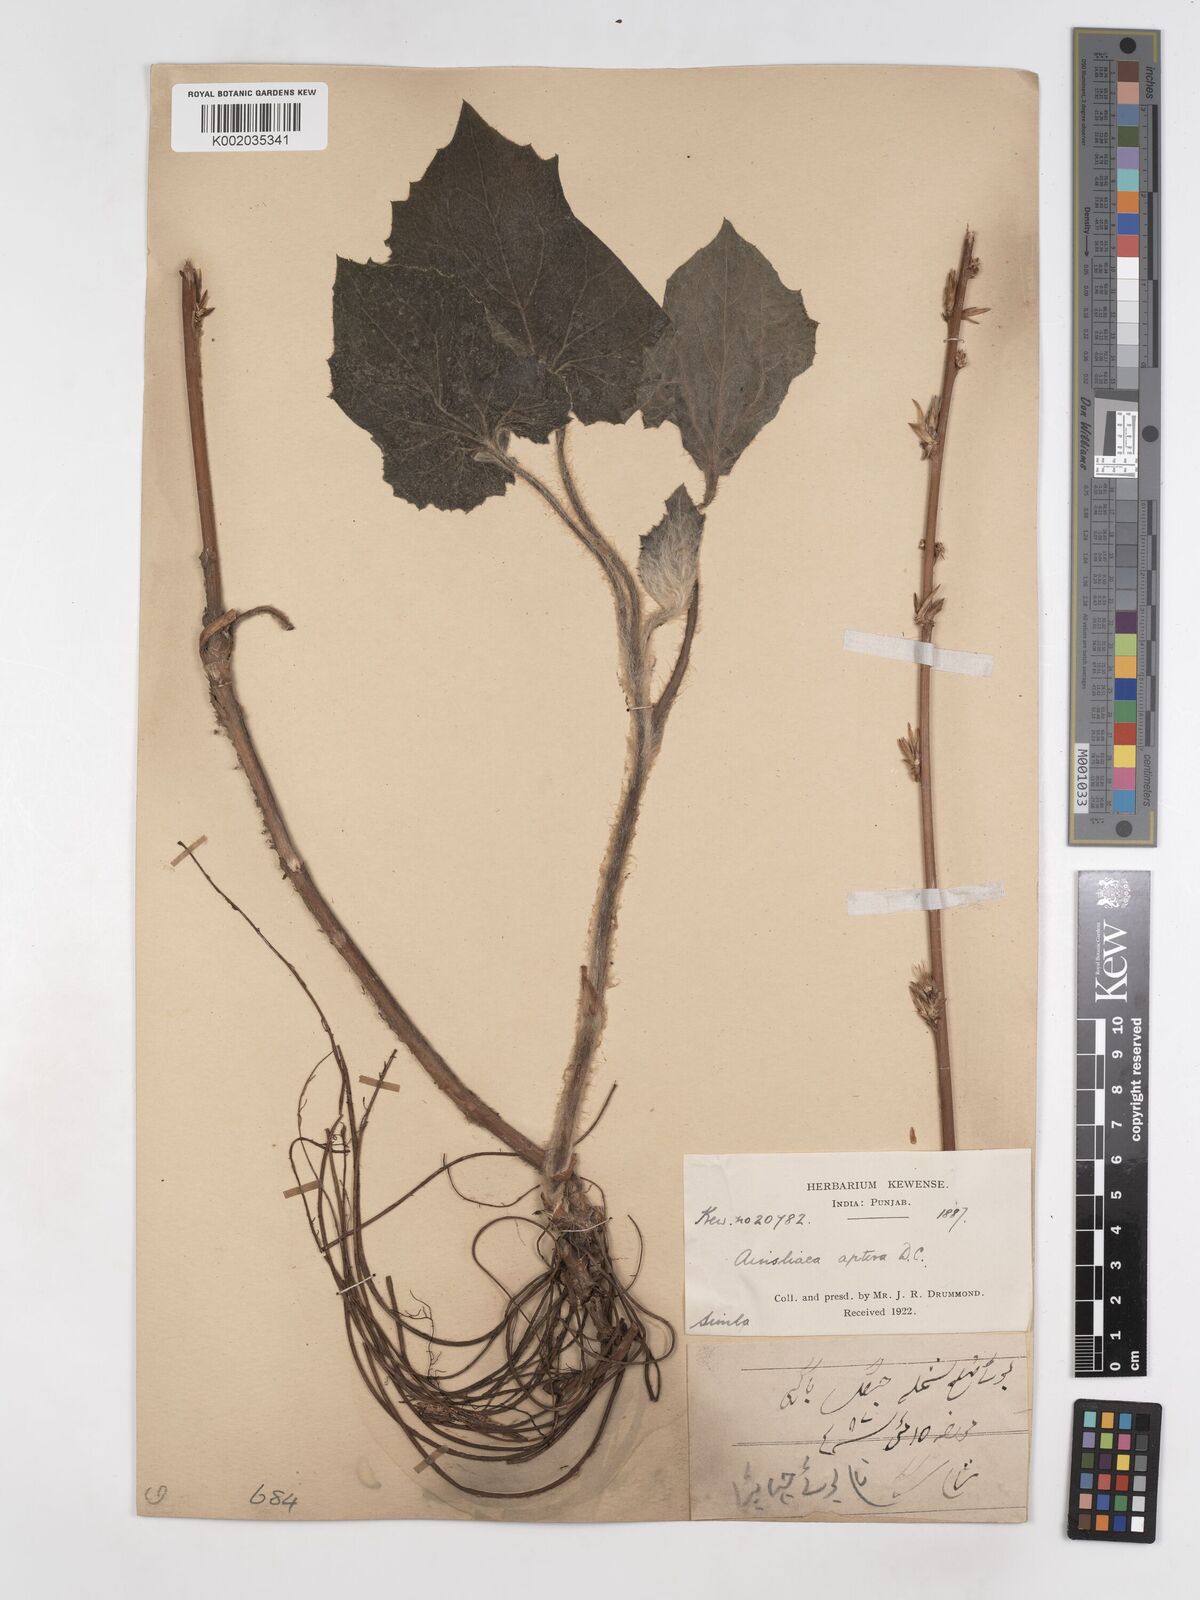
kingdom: Plantae
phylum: Tracheophyta
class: Magnoliopsida
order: Asterales
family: Asteraceae
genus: Ainsliaea
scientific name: Ainsliaea aptera
